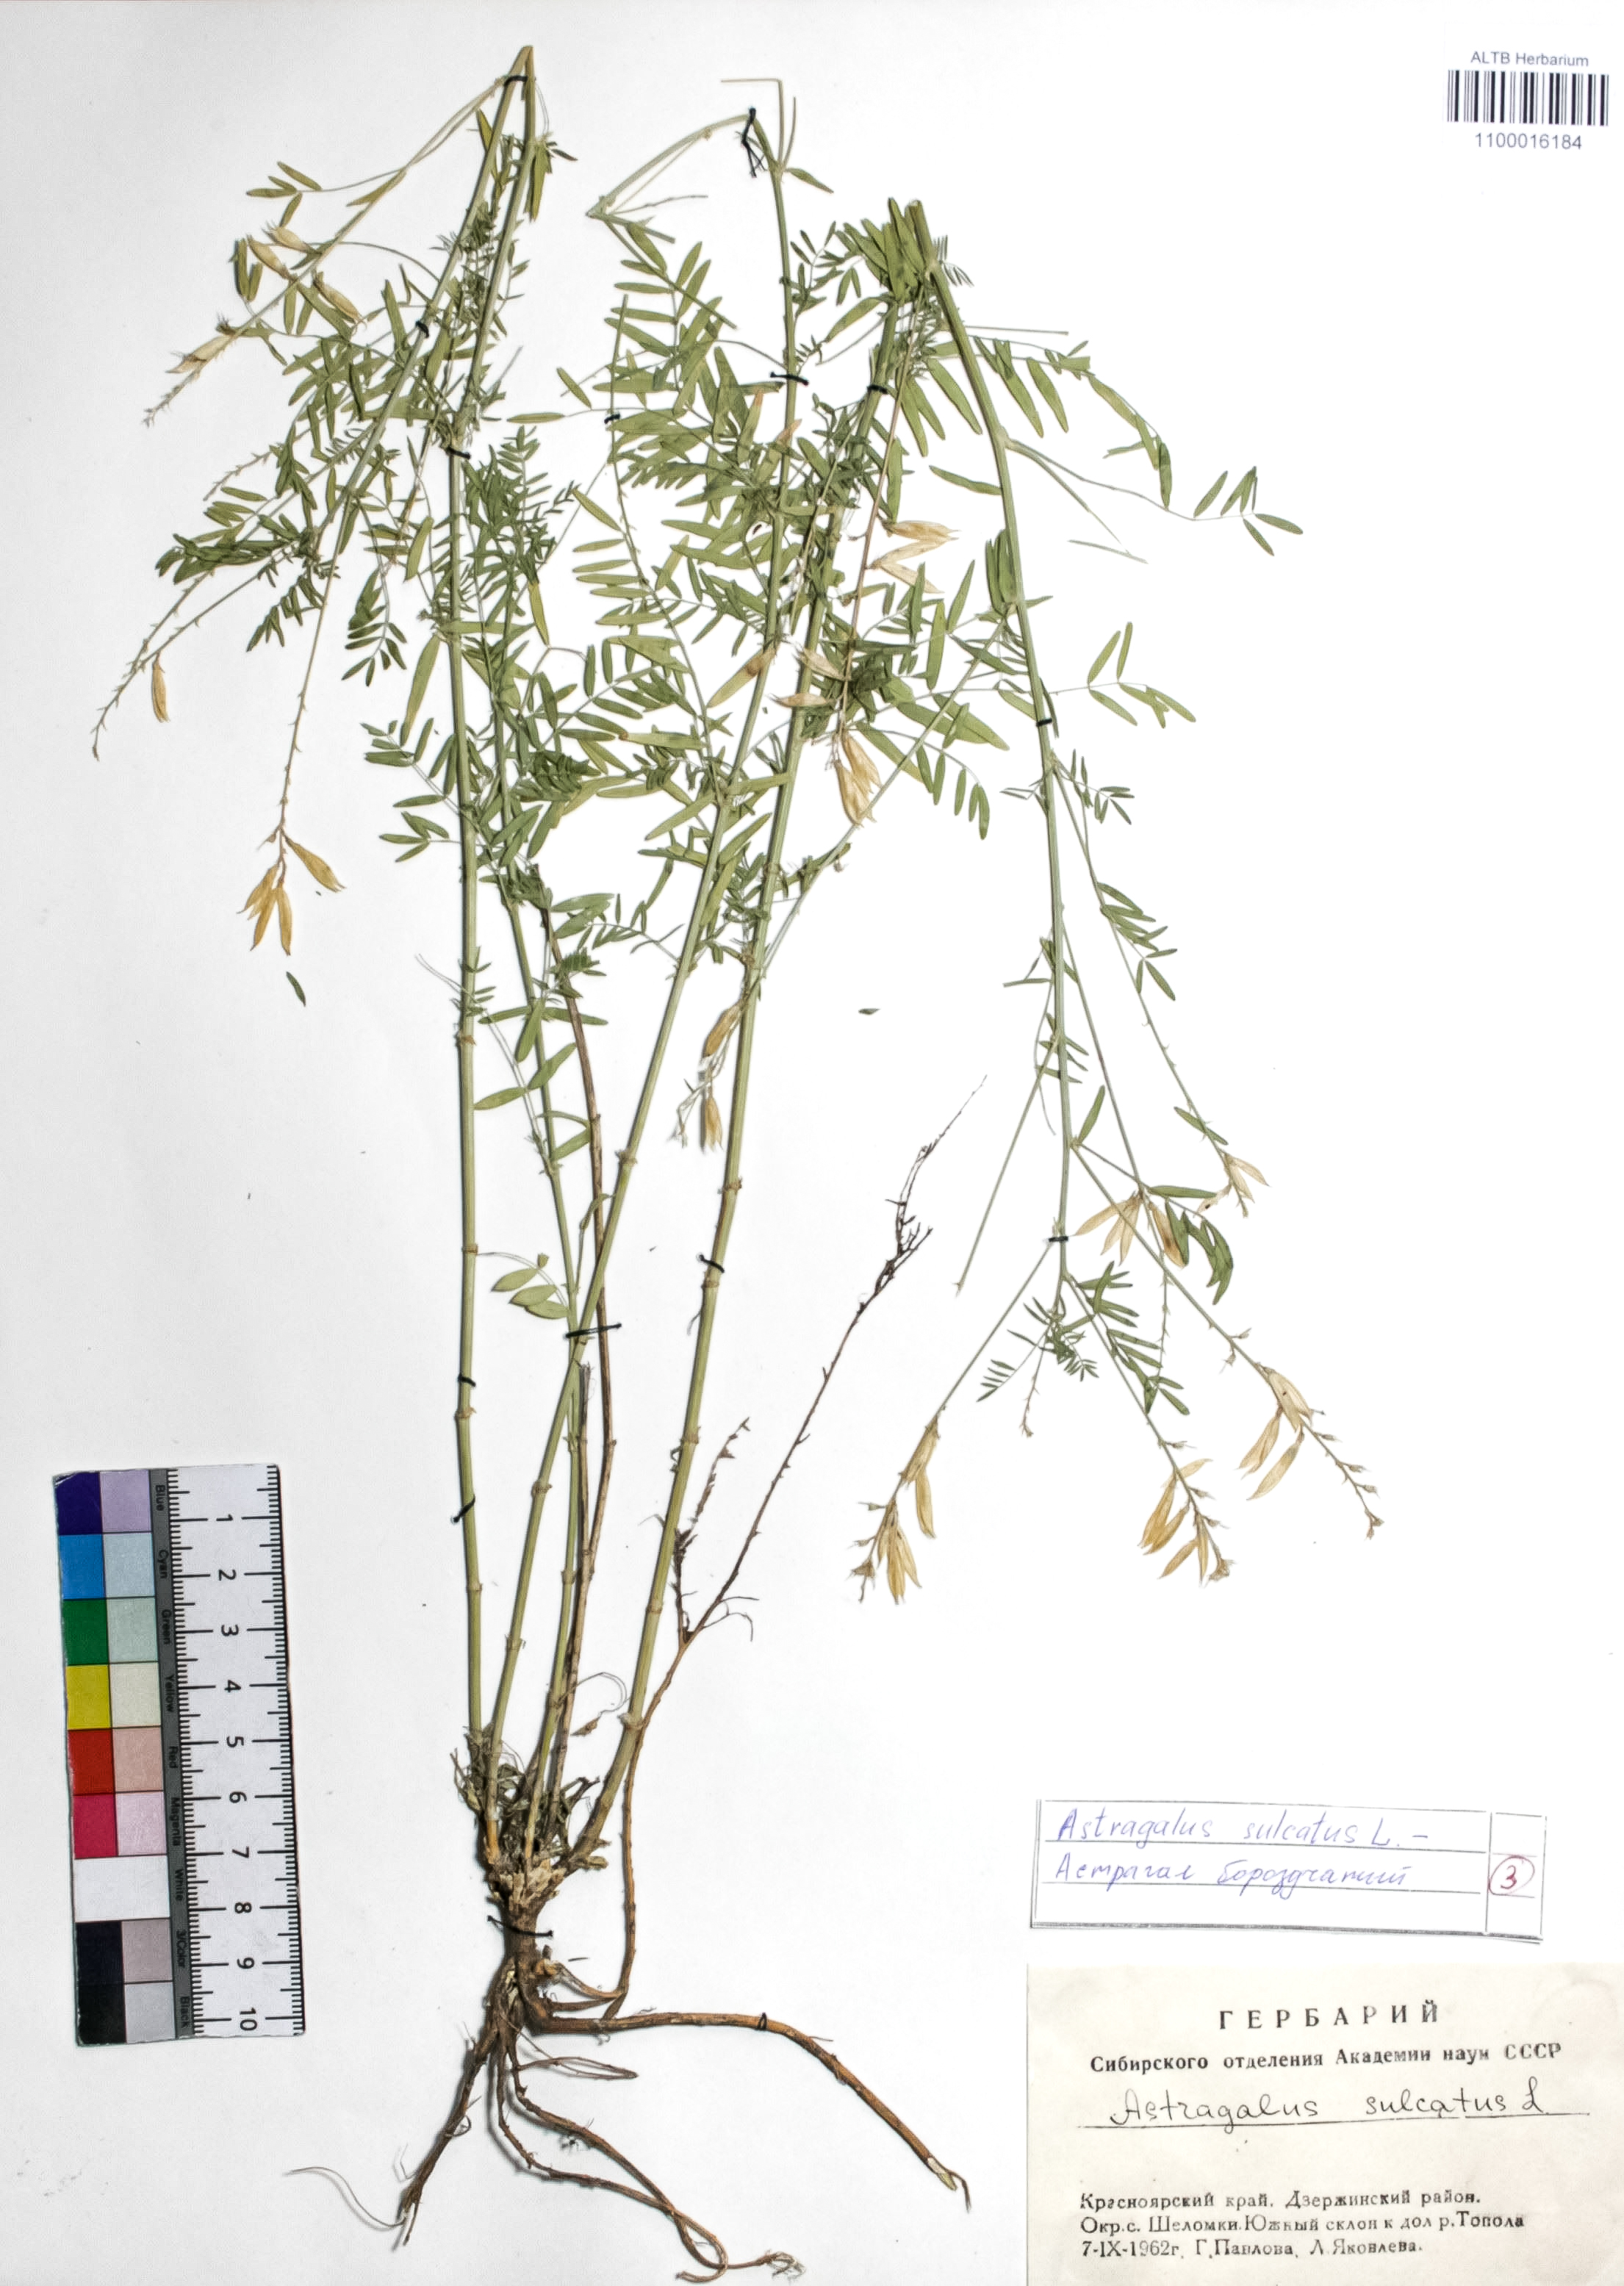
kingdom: Plantae
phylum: Tracheophyta
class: Magnoliopsida
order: Rosales
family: Rosaceae
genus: Geum
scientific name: Geum aleppicum
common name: Yellow avens
